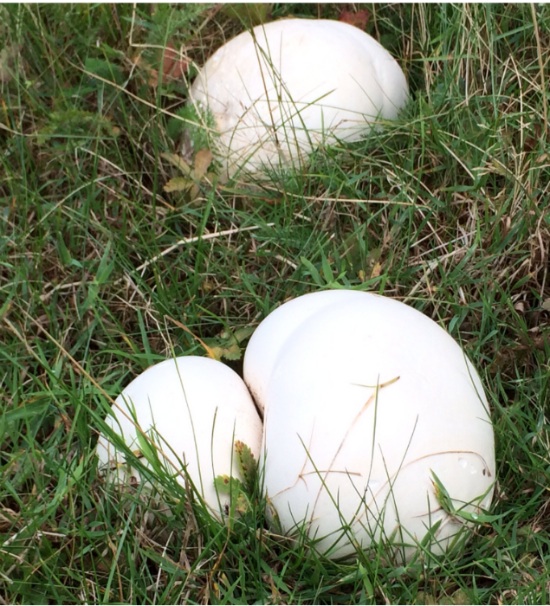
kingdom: Fungi
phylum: Basidiomycota
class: Agaricomycetes
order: Agaricales
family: Lycoperdaceae
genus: Calvatia
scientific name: Calvatia gigantea
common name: kæmpestøvbold
